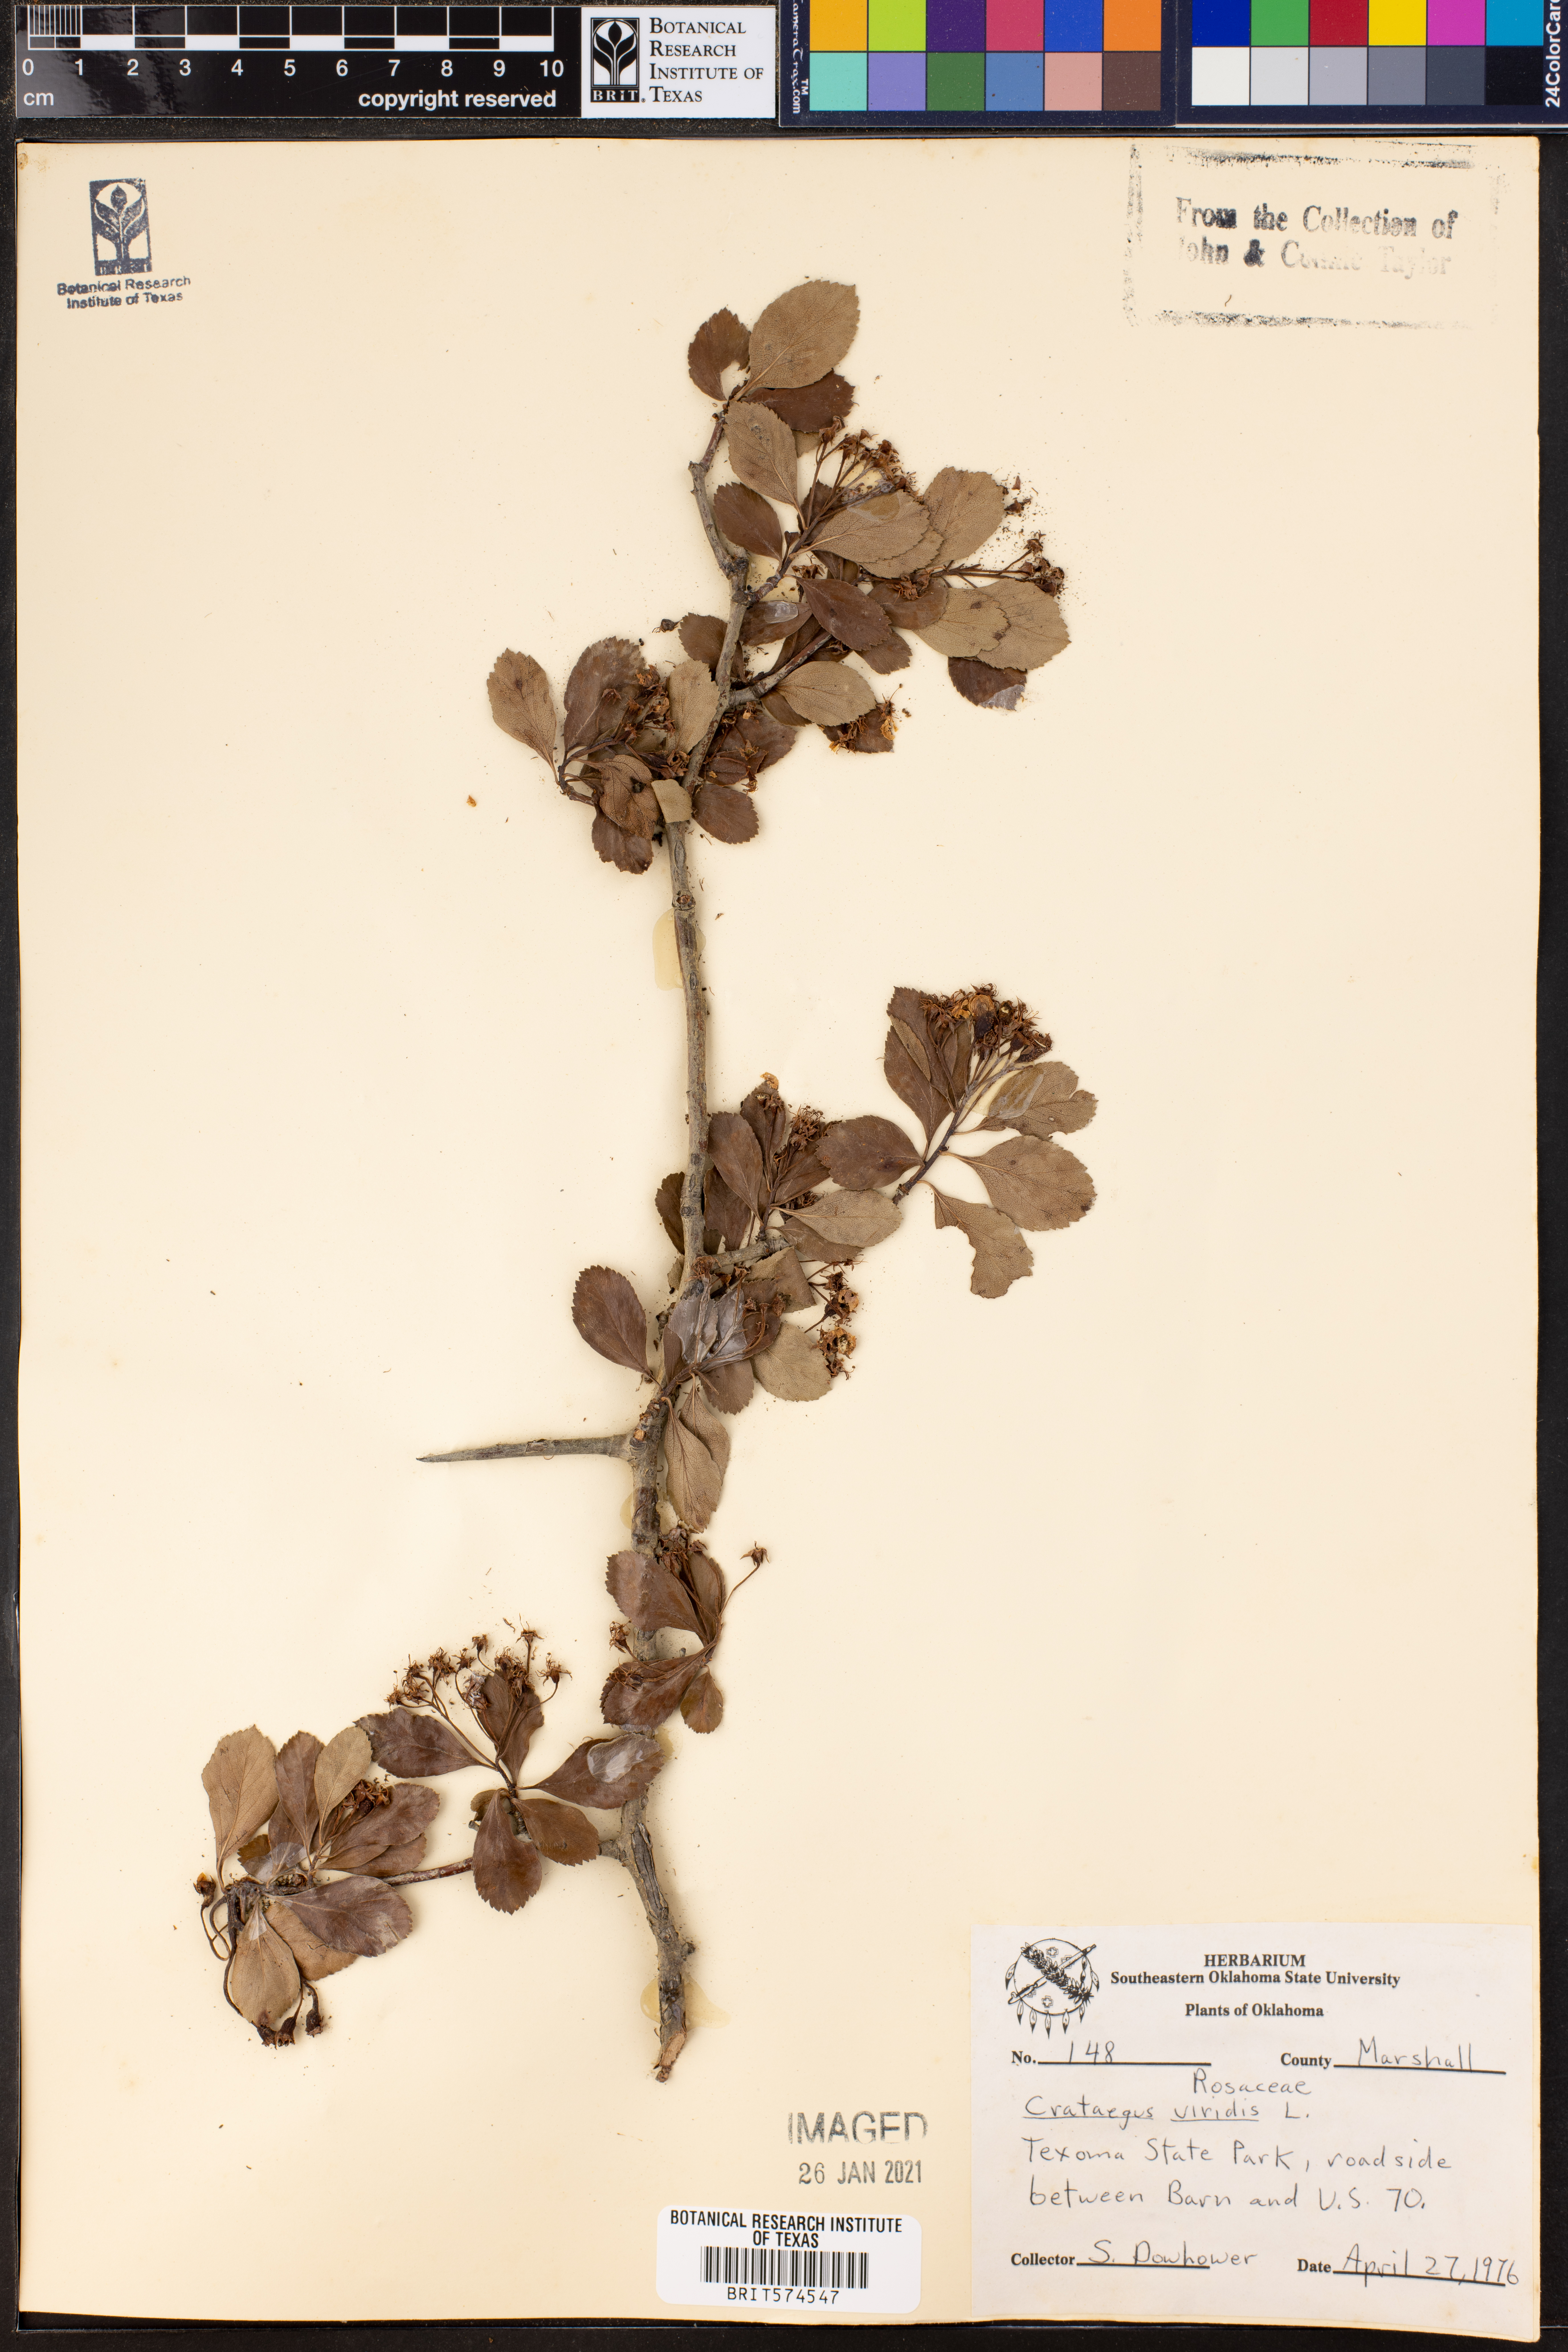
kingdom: Plantae
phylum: Tracheophyta
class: Magnoliopsida
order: Rosales
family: Rosaceae
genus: Crataegus
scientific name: Crataegus viridis
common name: Southernthorn
